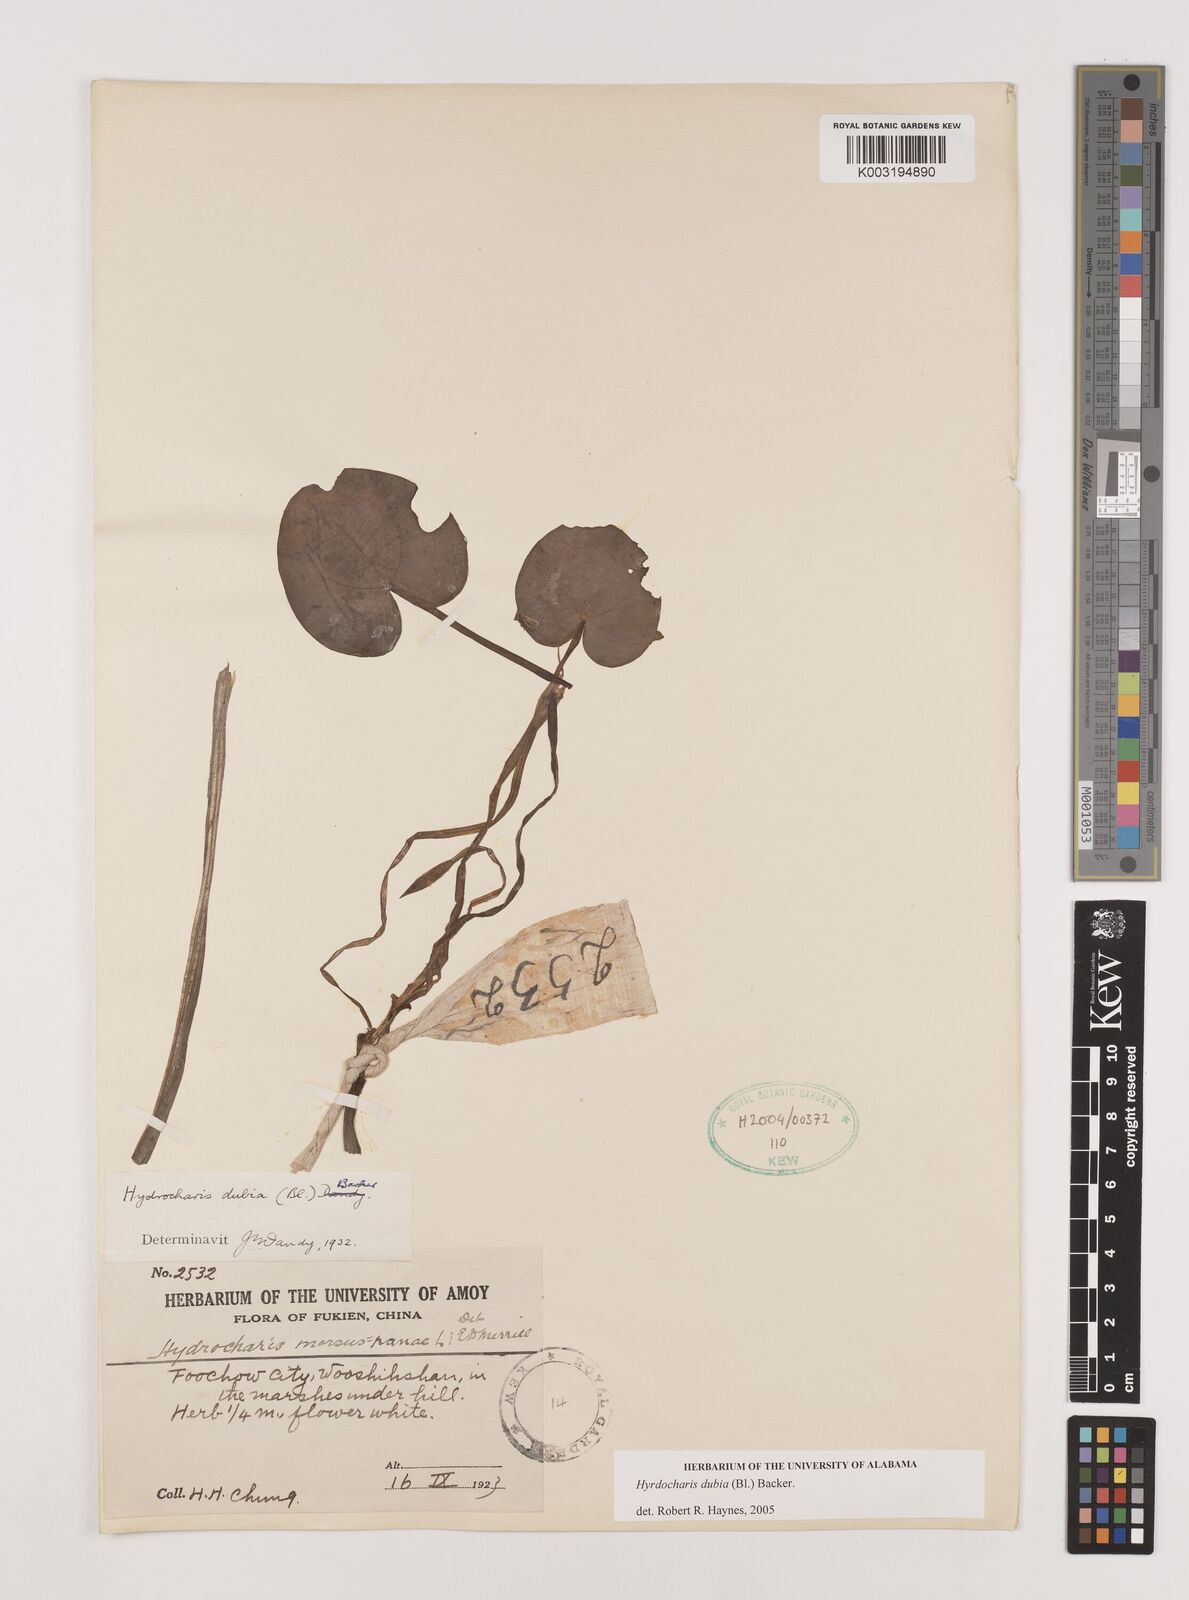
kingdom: Plantae
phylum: Tracheophyta
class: Liliopsida
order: Alismatales
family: Hydrocharitaceae
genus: Hydrocharis
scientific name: Hydrocharis dubia
